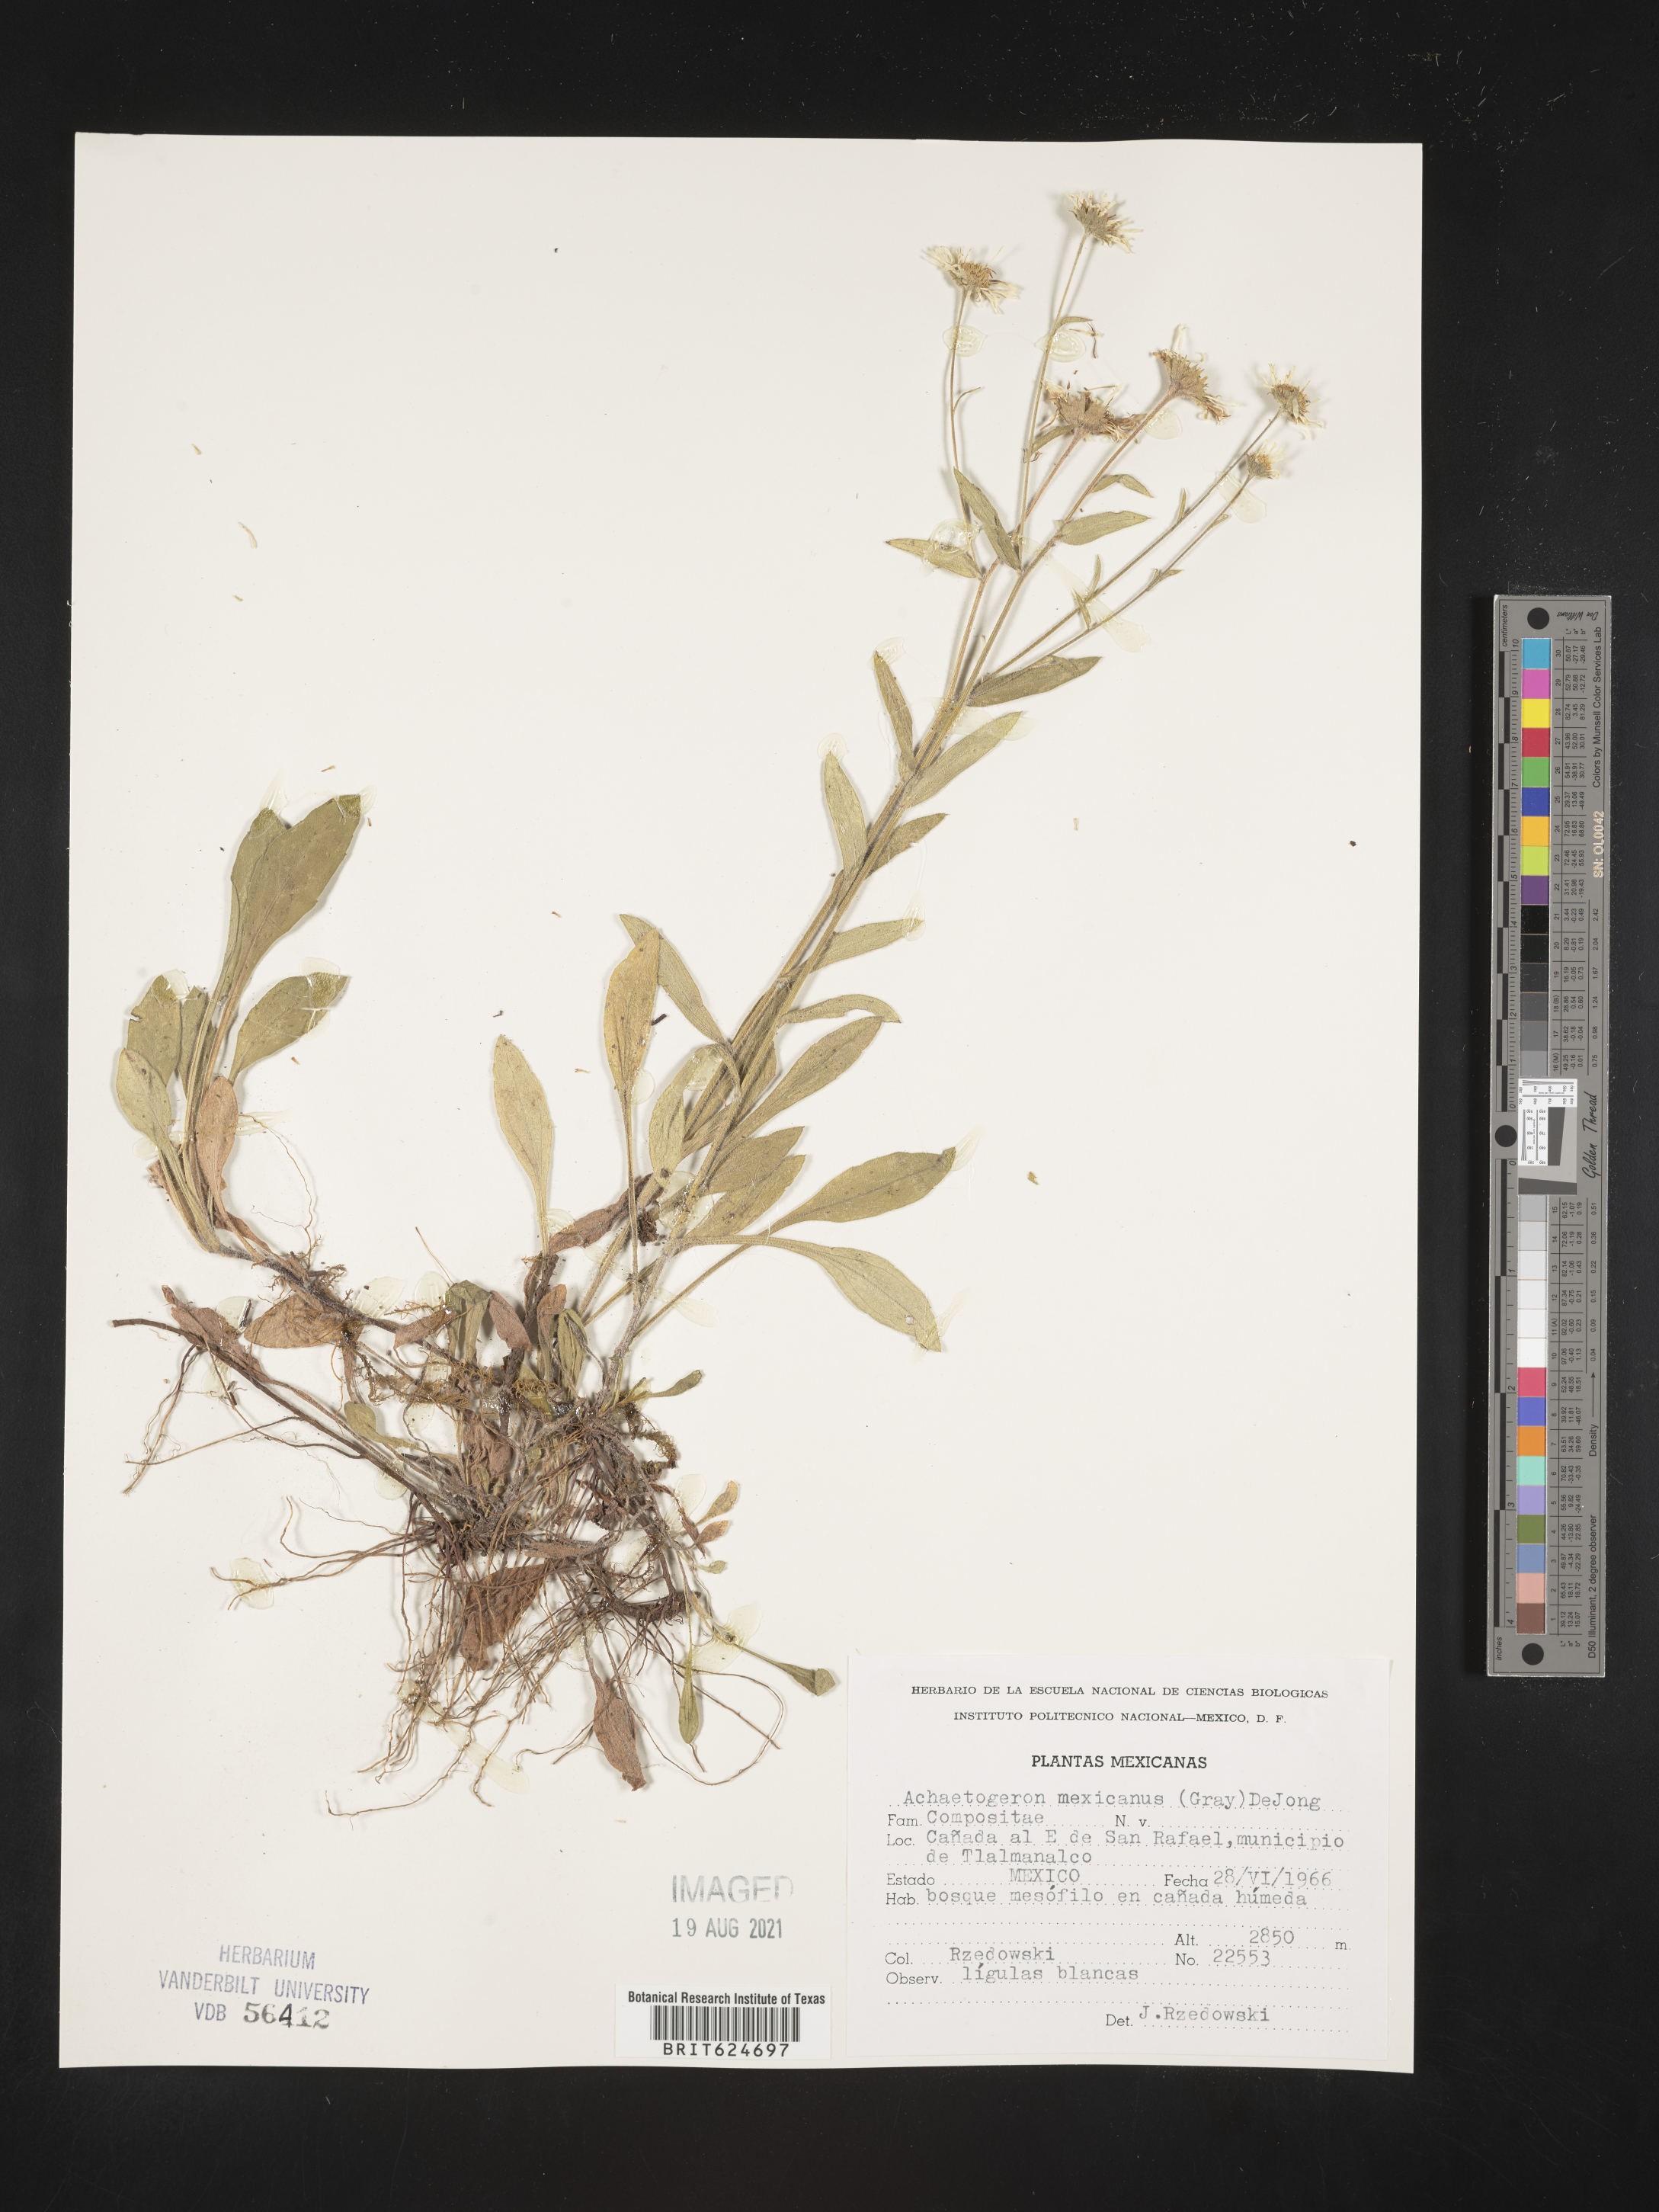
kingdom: Plantae
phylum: Tracheophyta
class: Magnoliopsida
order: Asterales
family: Asteraceae
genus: Erigeron
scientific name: Erigeron
